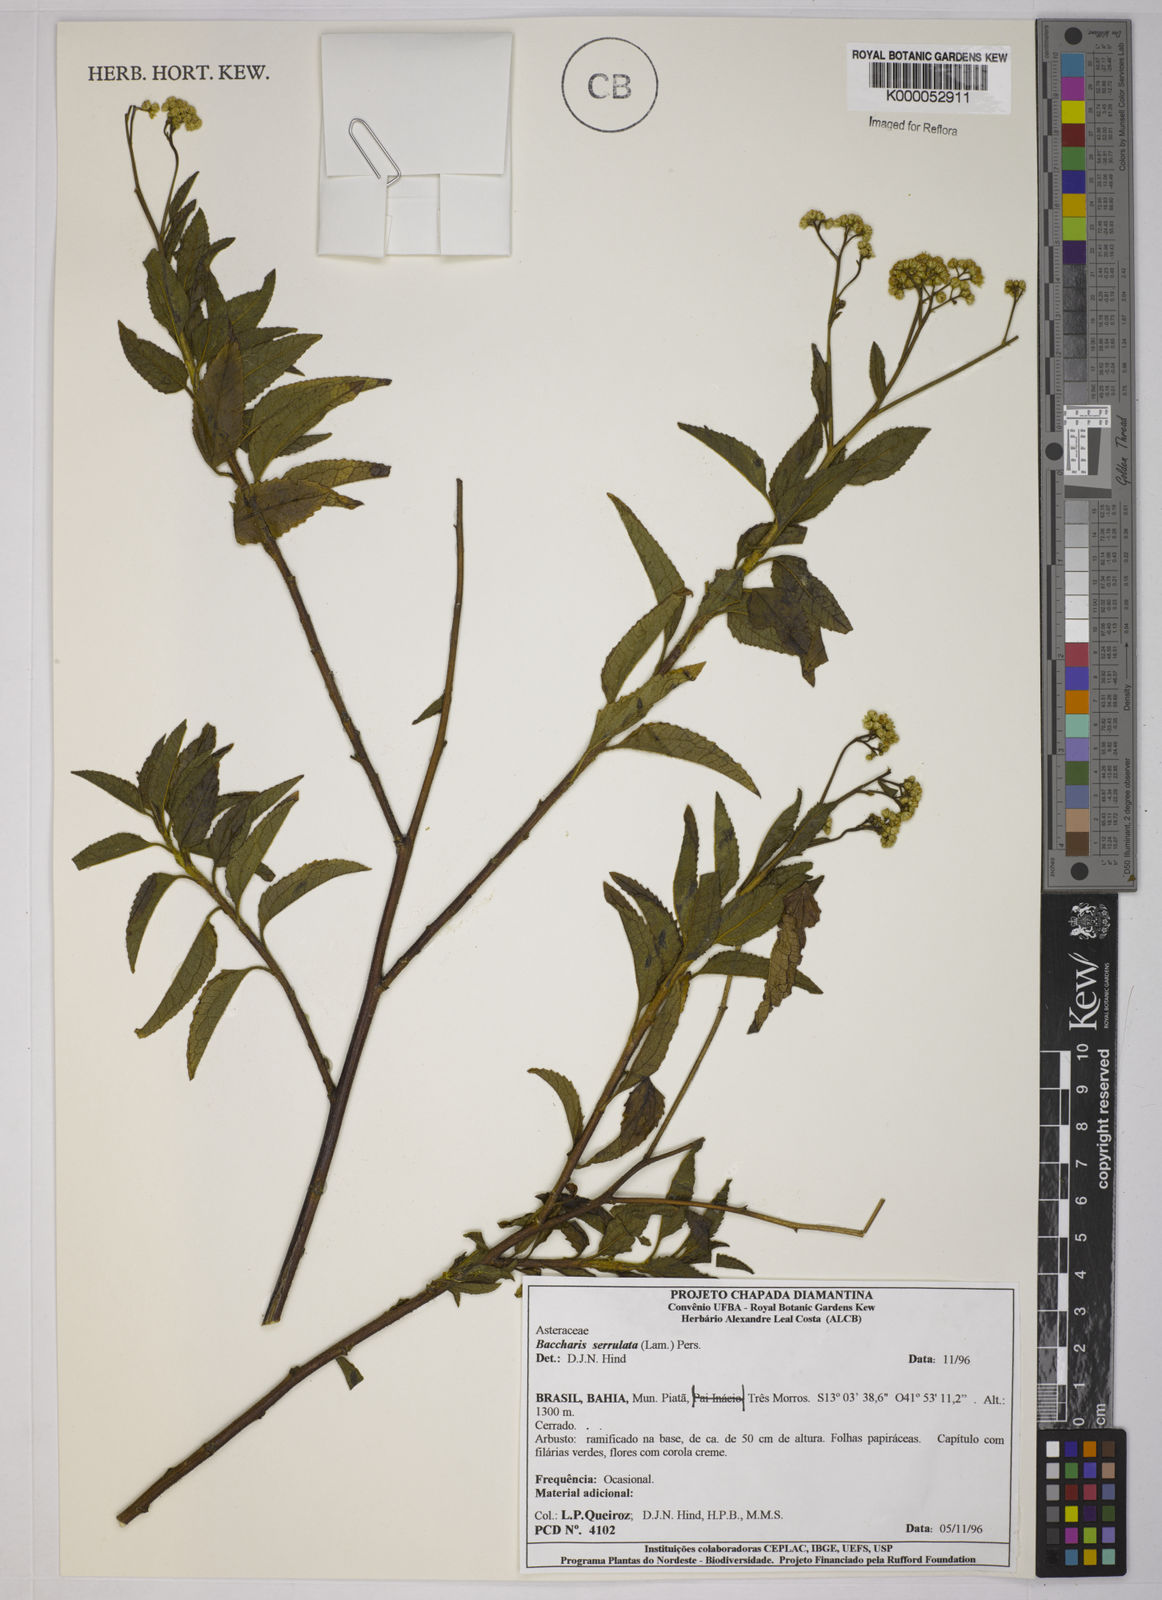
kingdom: Plantae
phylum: Tracheophyta
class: Magnoliopsida
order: Asterales
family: Asteraceae
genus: Baccharis
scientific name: Baccharis serrulata
